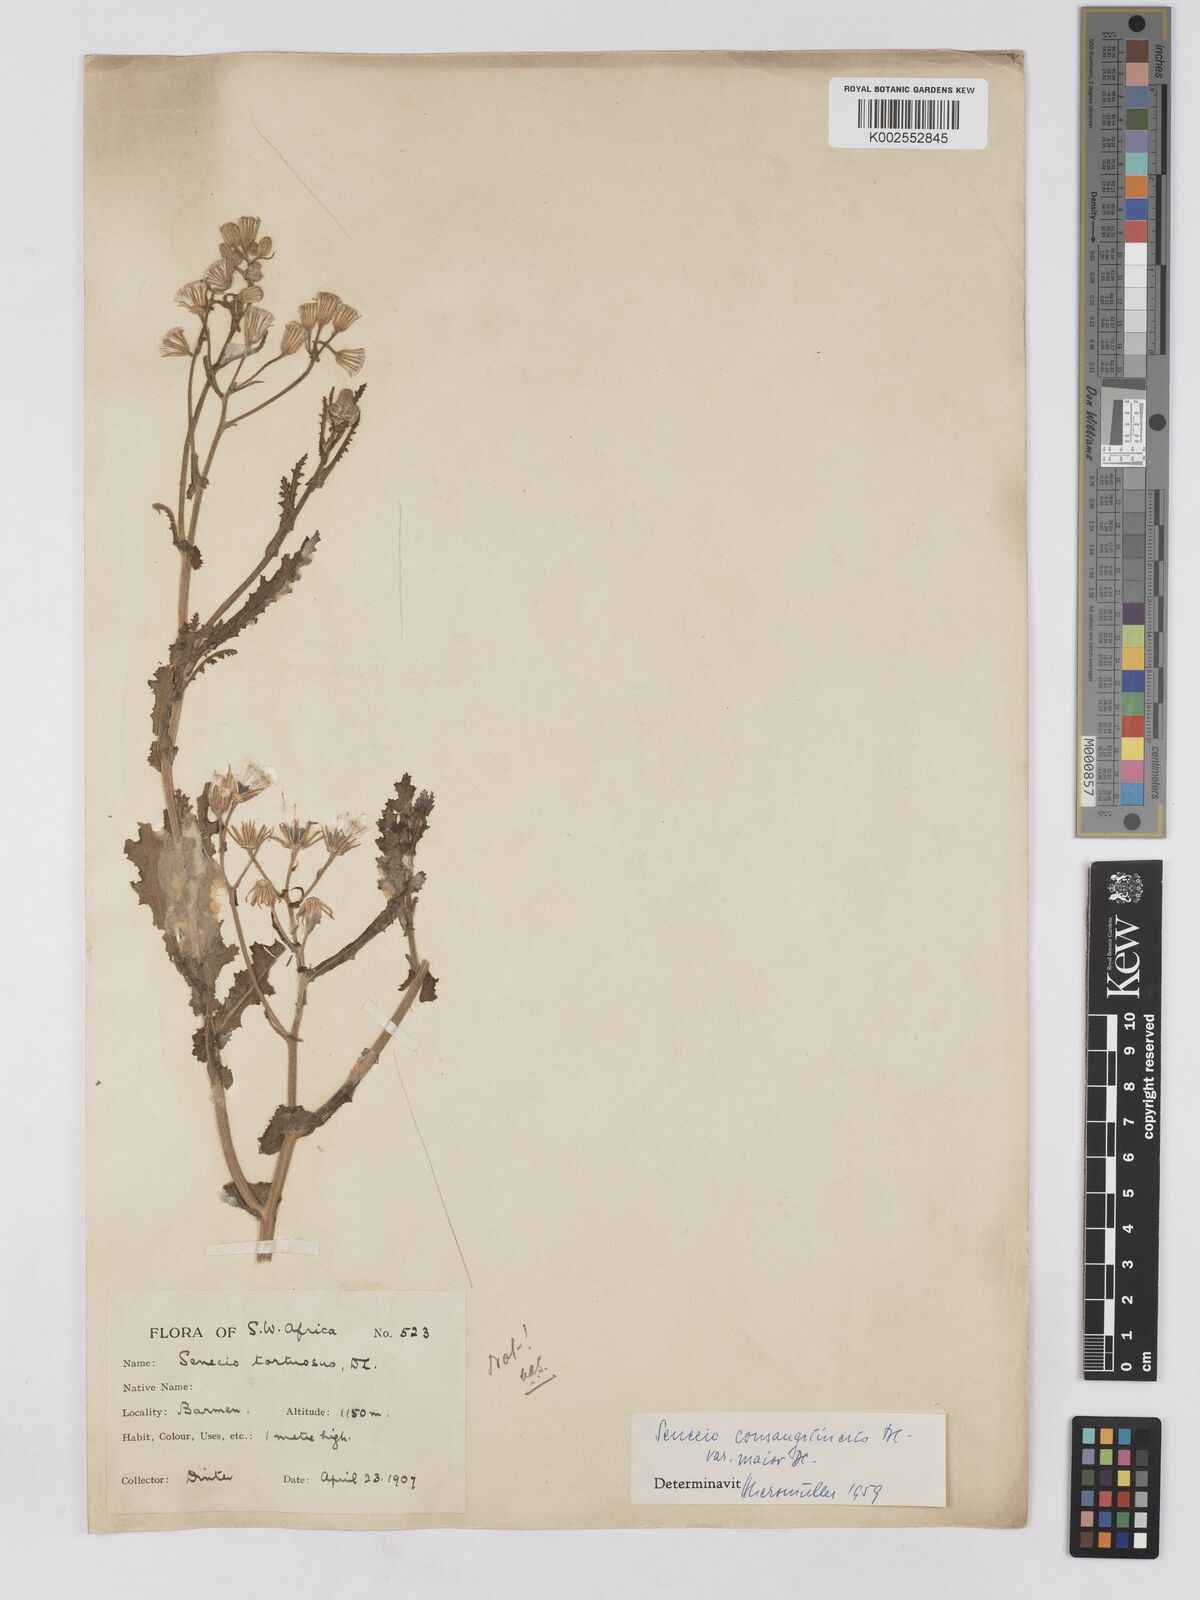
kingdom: Plantae
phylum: Tracheophyta
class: Magnoliopsida
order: Asterales
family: Asteraceae
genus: Senecio
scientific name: Senecio consanguineus
